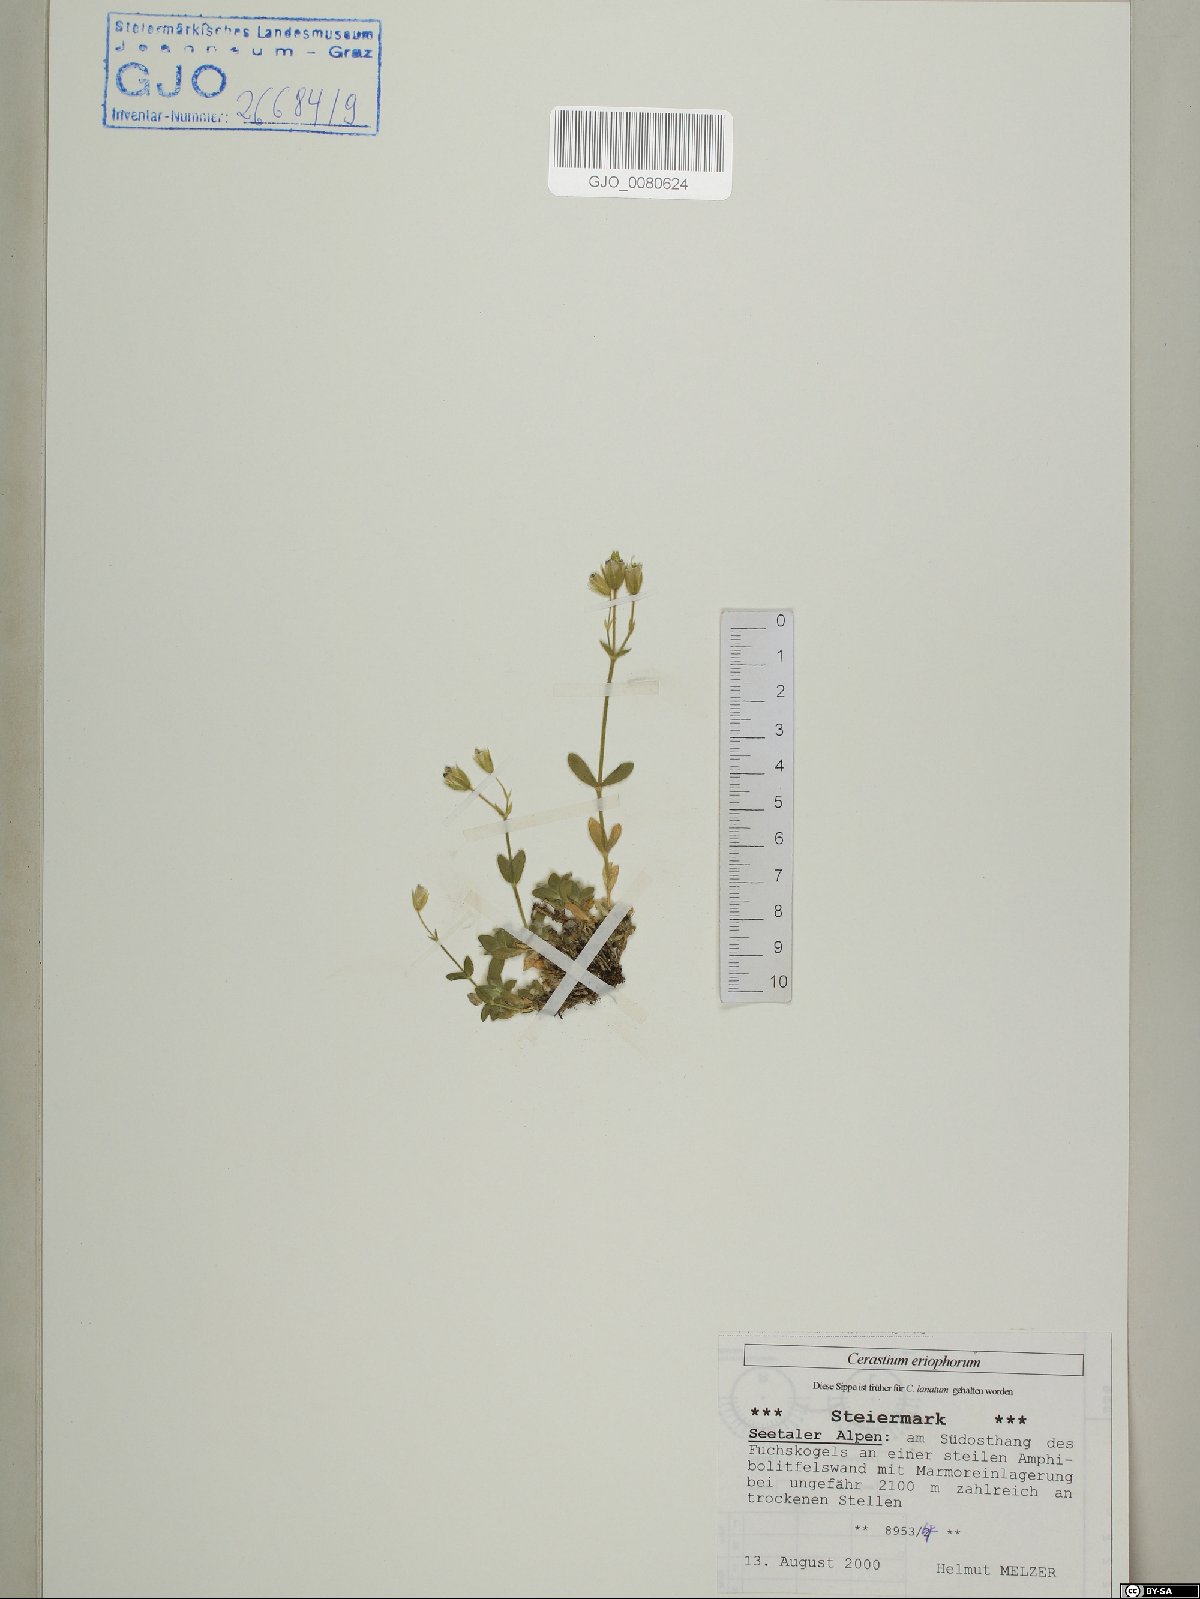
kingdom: Plantae
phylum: Tracheophyta
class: Magnoliopsida
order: Caryophyllales
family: Caryophyllaceae
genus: Cerastium
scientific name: Cerastium eriophorum
